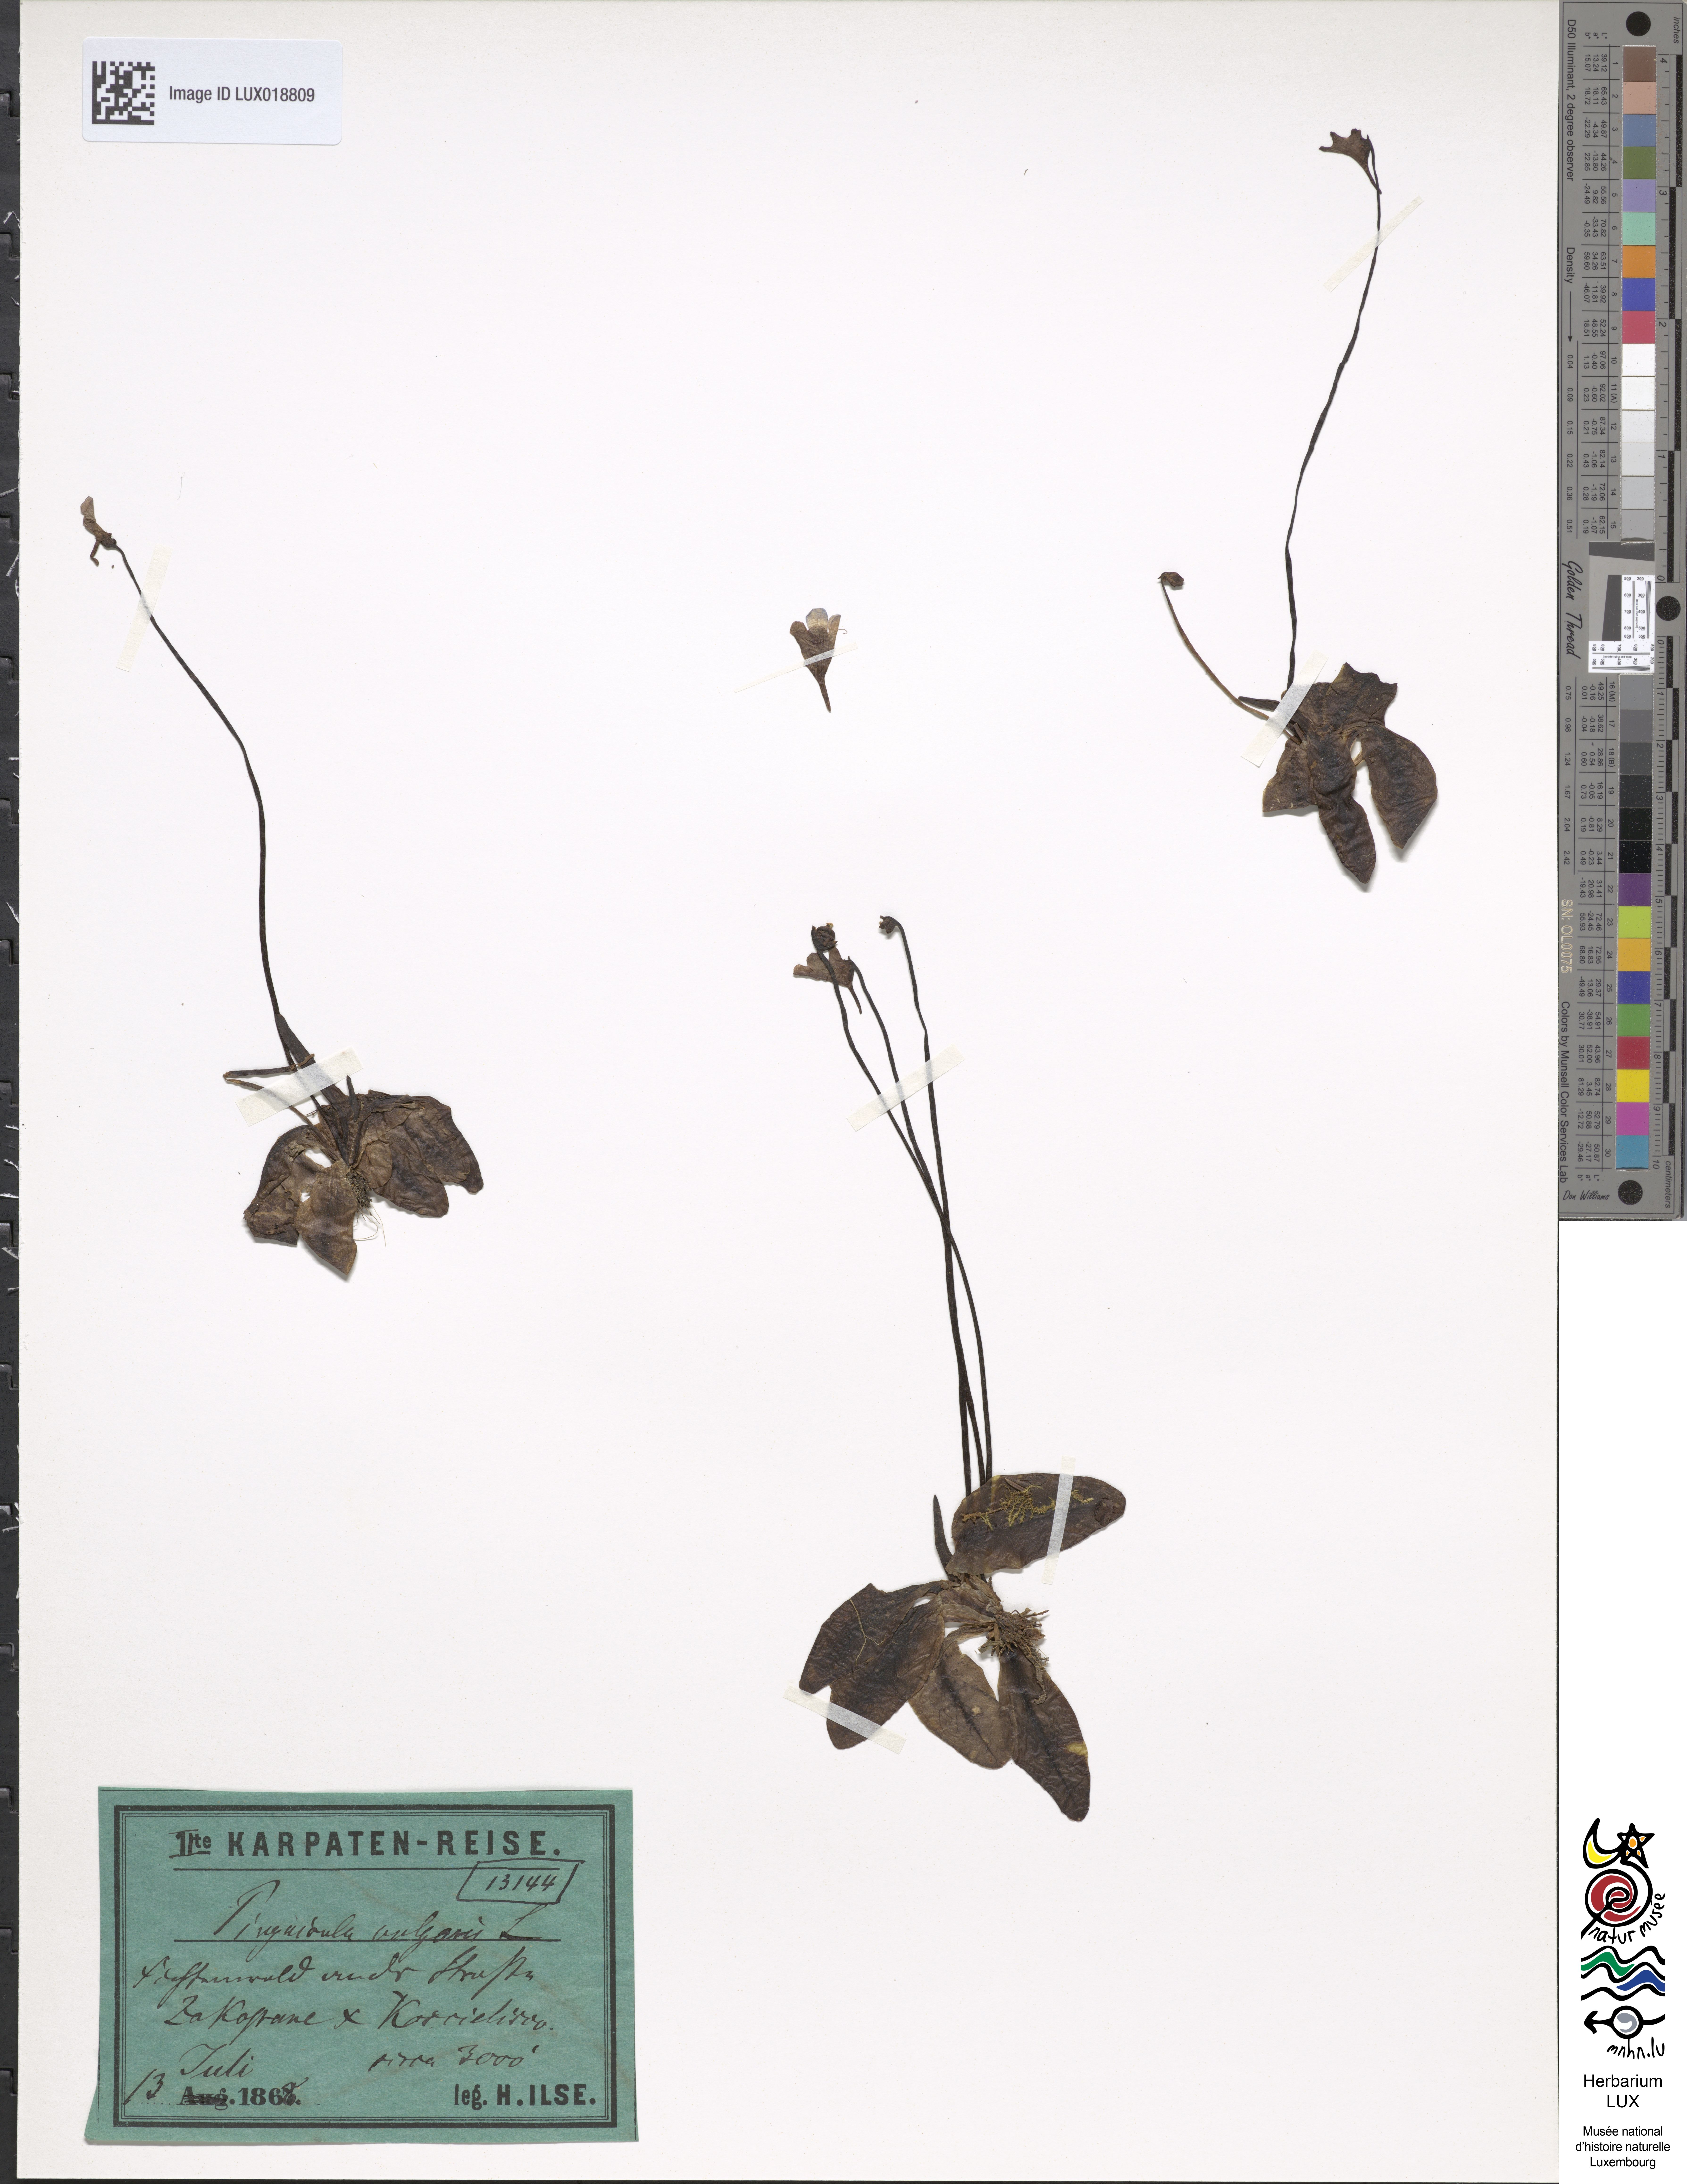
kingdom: Plantae
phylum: Tracheophyta
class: Magnoliopsida
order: Lamiales
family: Lentibulariaceae
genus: Pinguicula
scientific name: Pinguicula vulgaris
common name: Common butterwort
